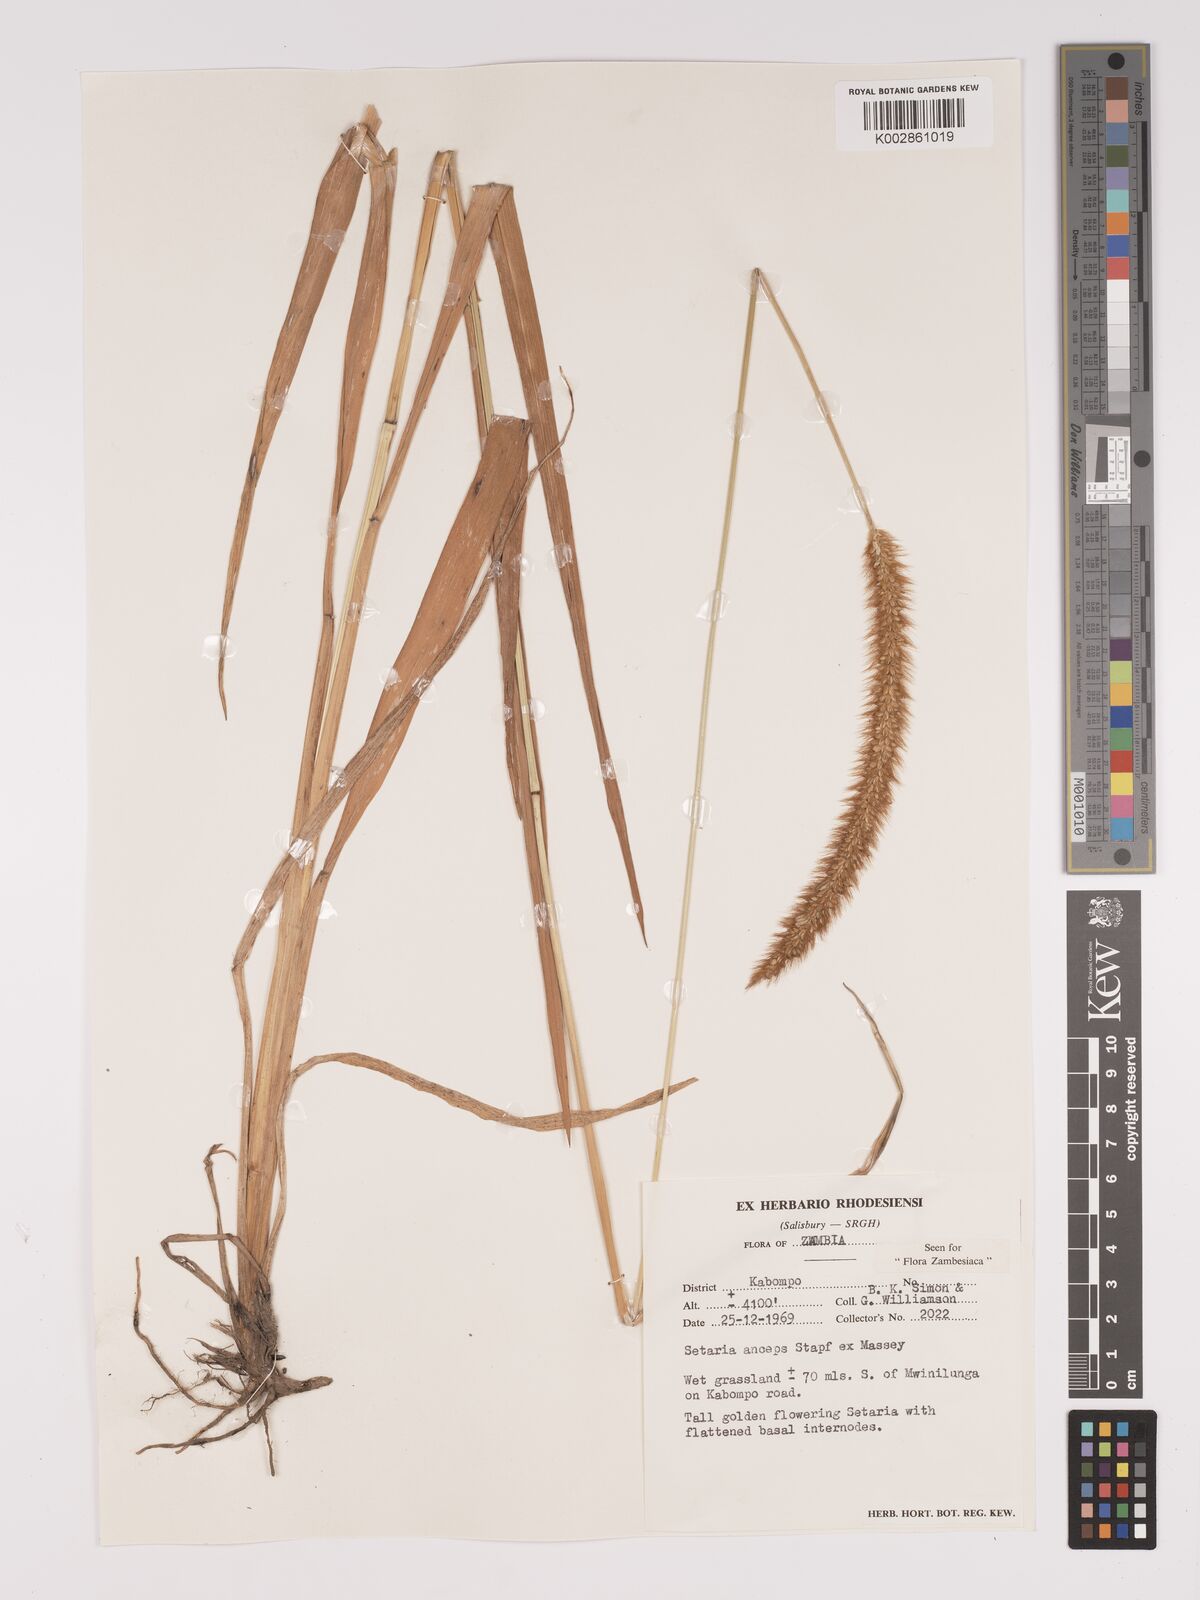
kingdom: Plantae
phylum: Tracheophyta
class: Liliopsida
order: Poales
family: Poaceae
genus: Setaria
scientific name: Setaria sphacelata
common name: African bristlegrass
